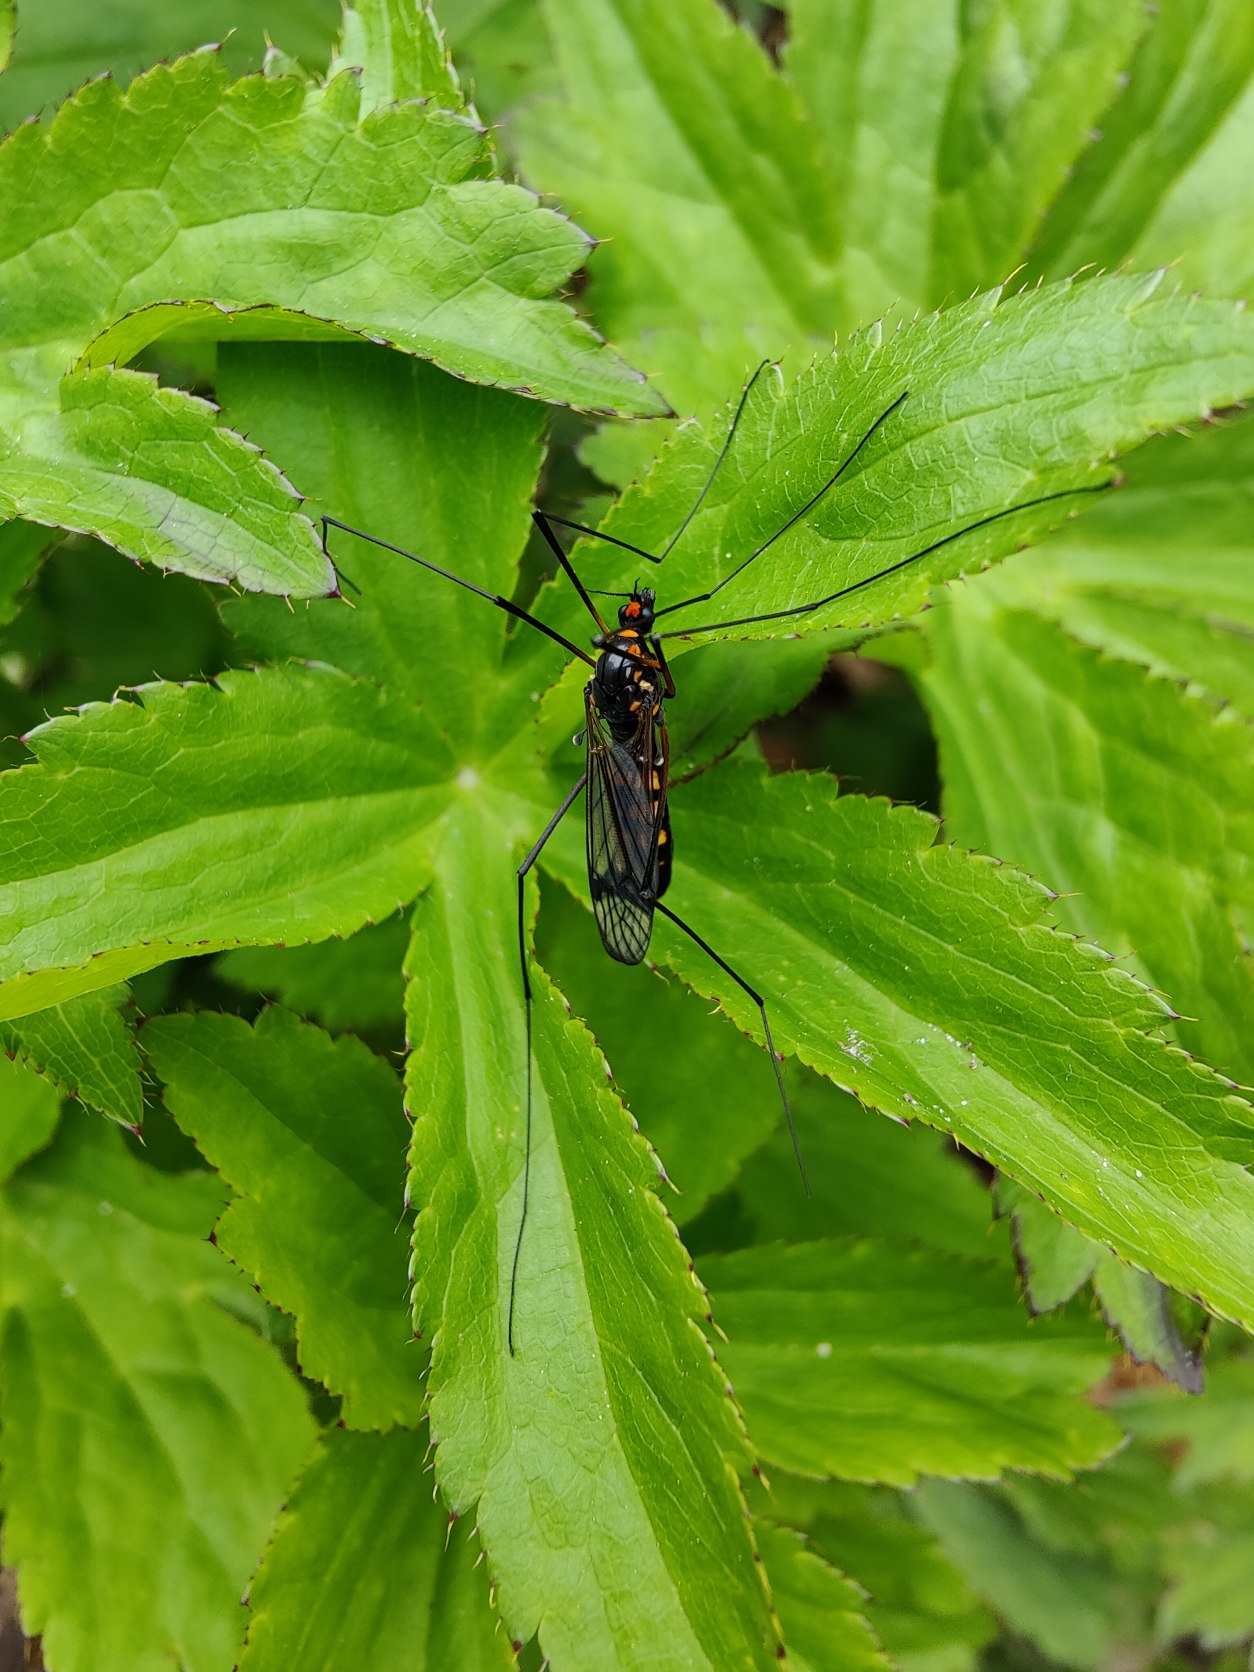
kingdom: Animalia
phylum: Arthropoda
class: Insecta
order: Diptera
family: Tipulidae
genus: Nephrotoma
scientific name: Nephrotoma crocata
